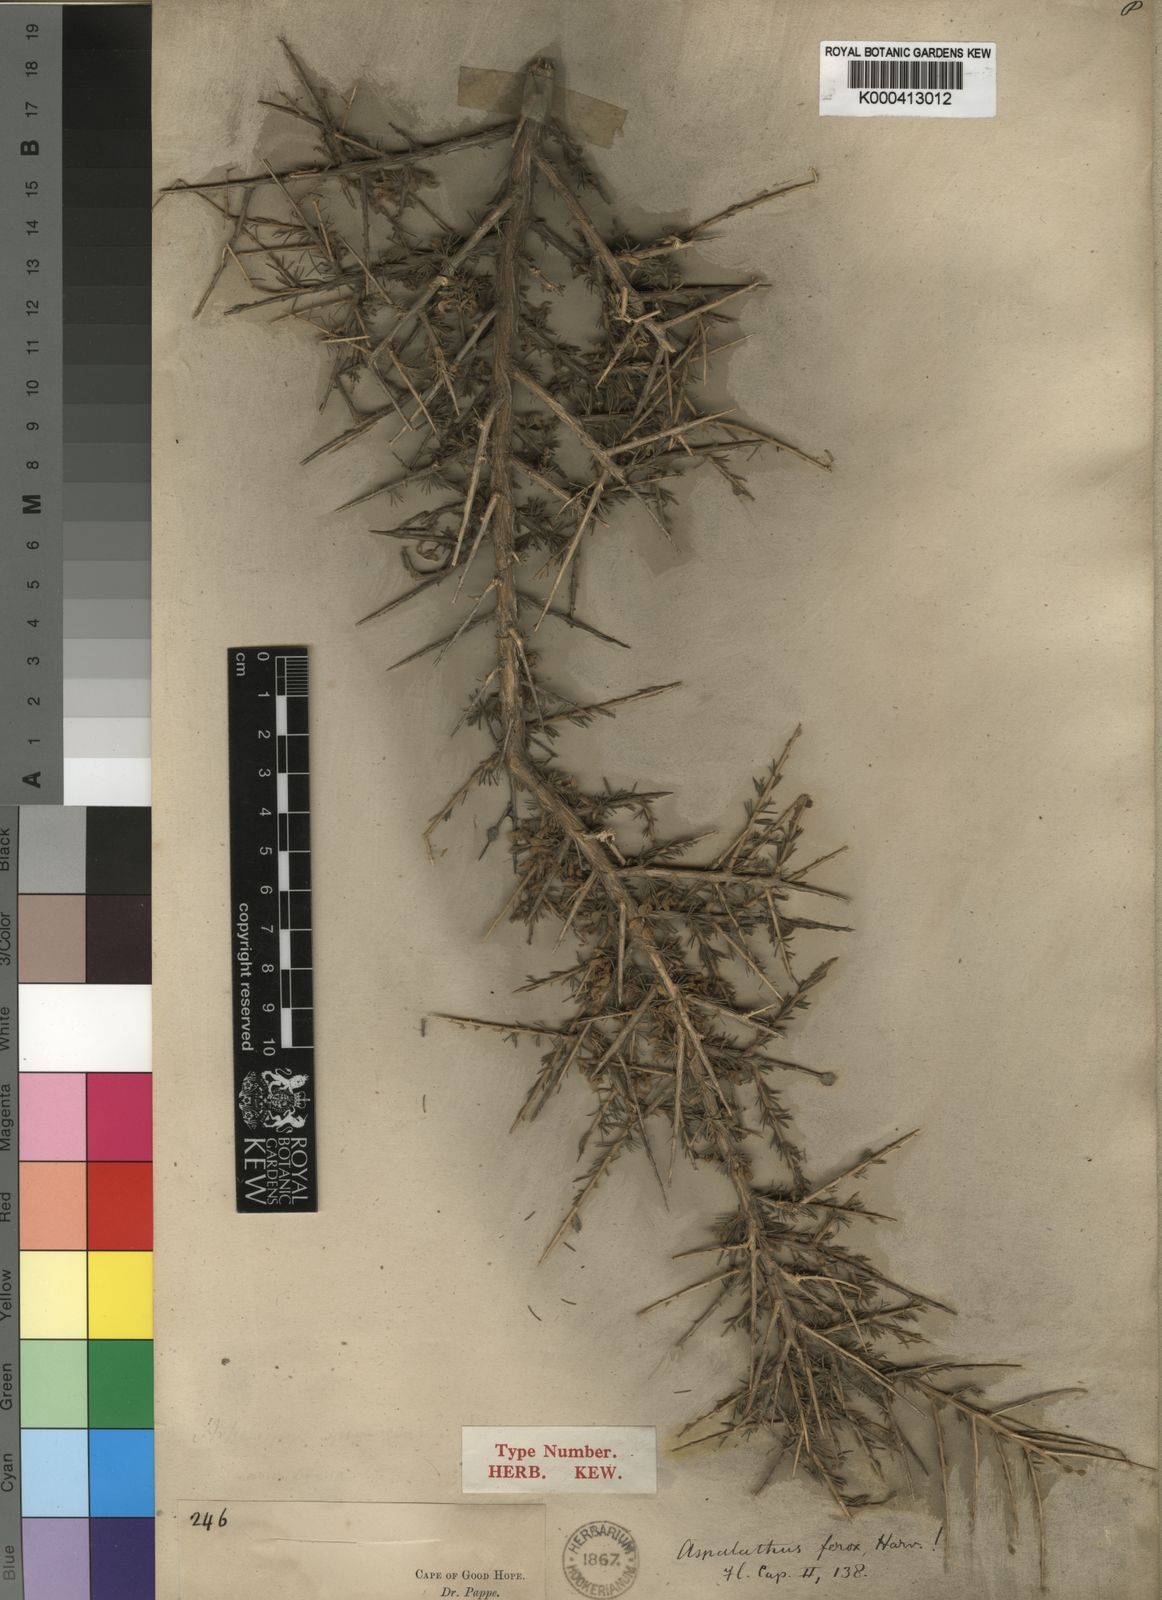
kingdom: Plantae
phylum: Tracheophyta
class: Magnoliopsida
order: Fabales
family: Fabaceae
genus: Aspalathus
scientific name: Aspalathus ferox
